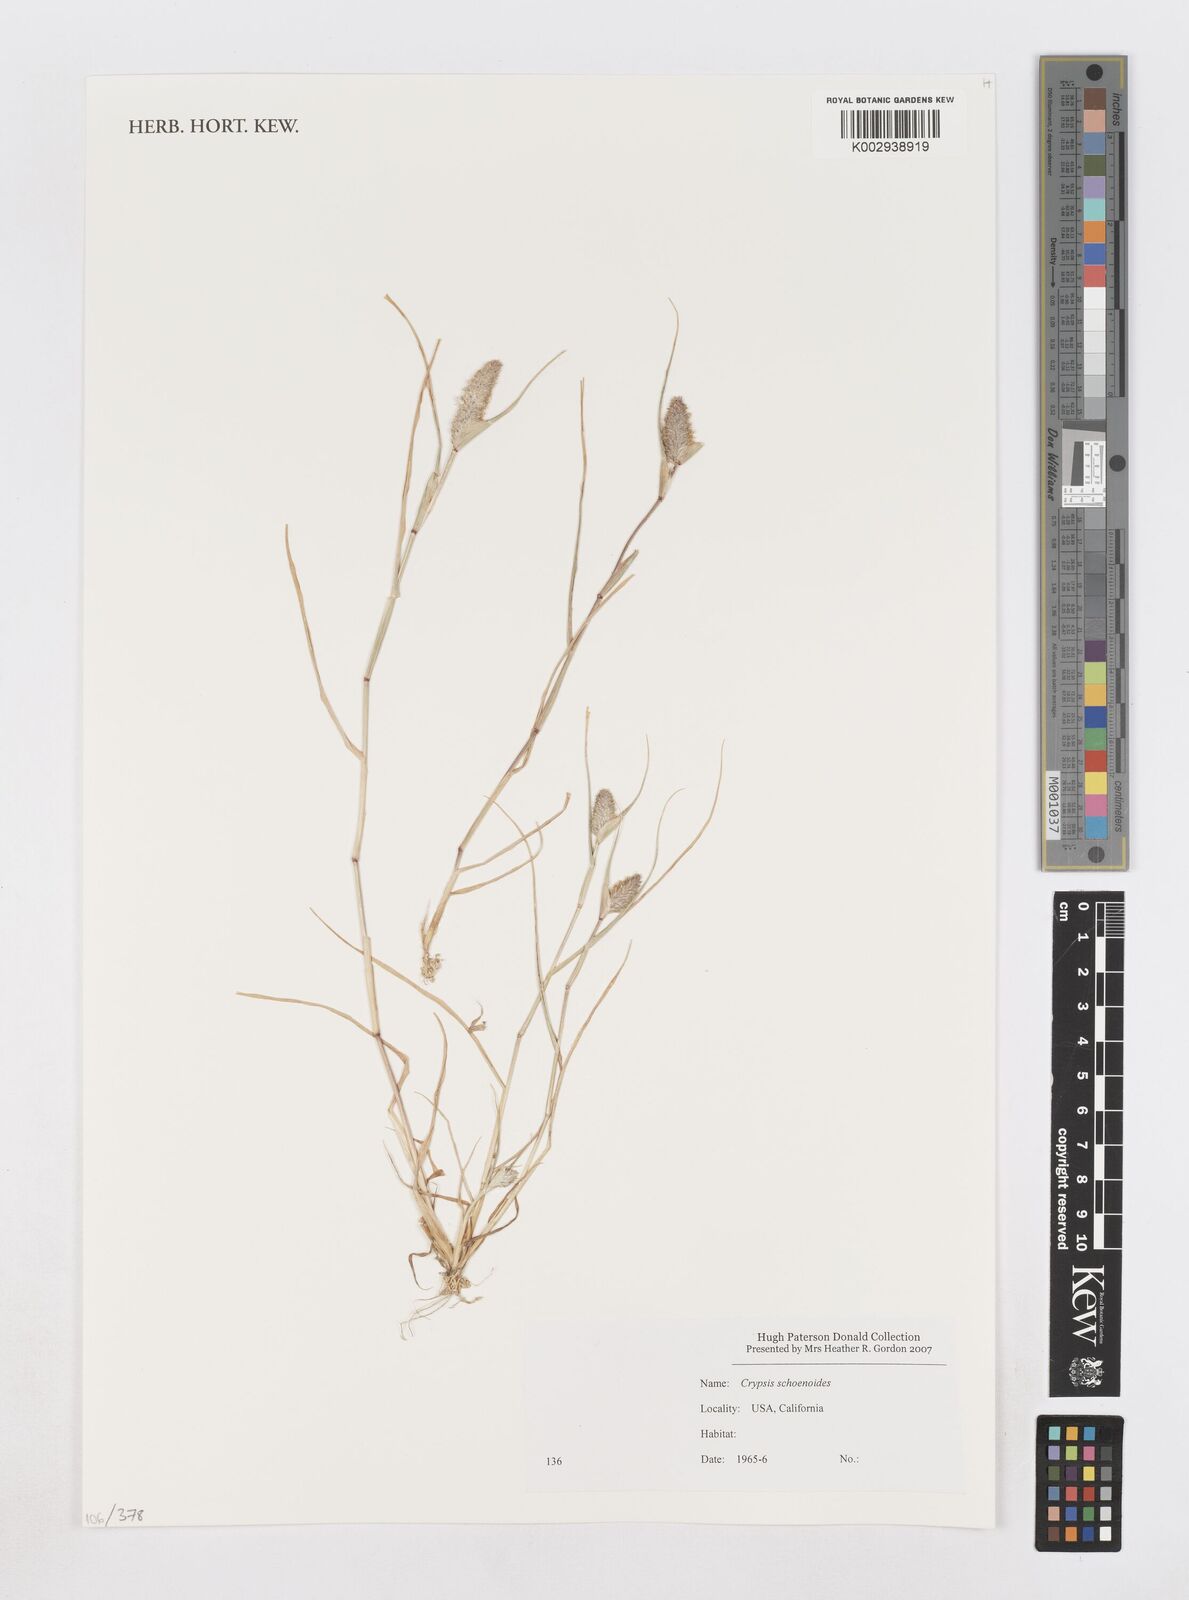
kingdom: Animalia
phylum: Arthropoda
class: Insecta
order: Coleoptera
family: Tenebrionidae
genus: Crypsis
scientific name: Crypsis
